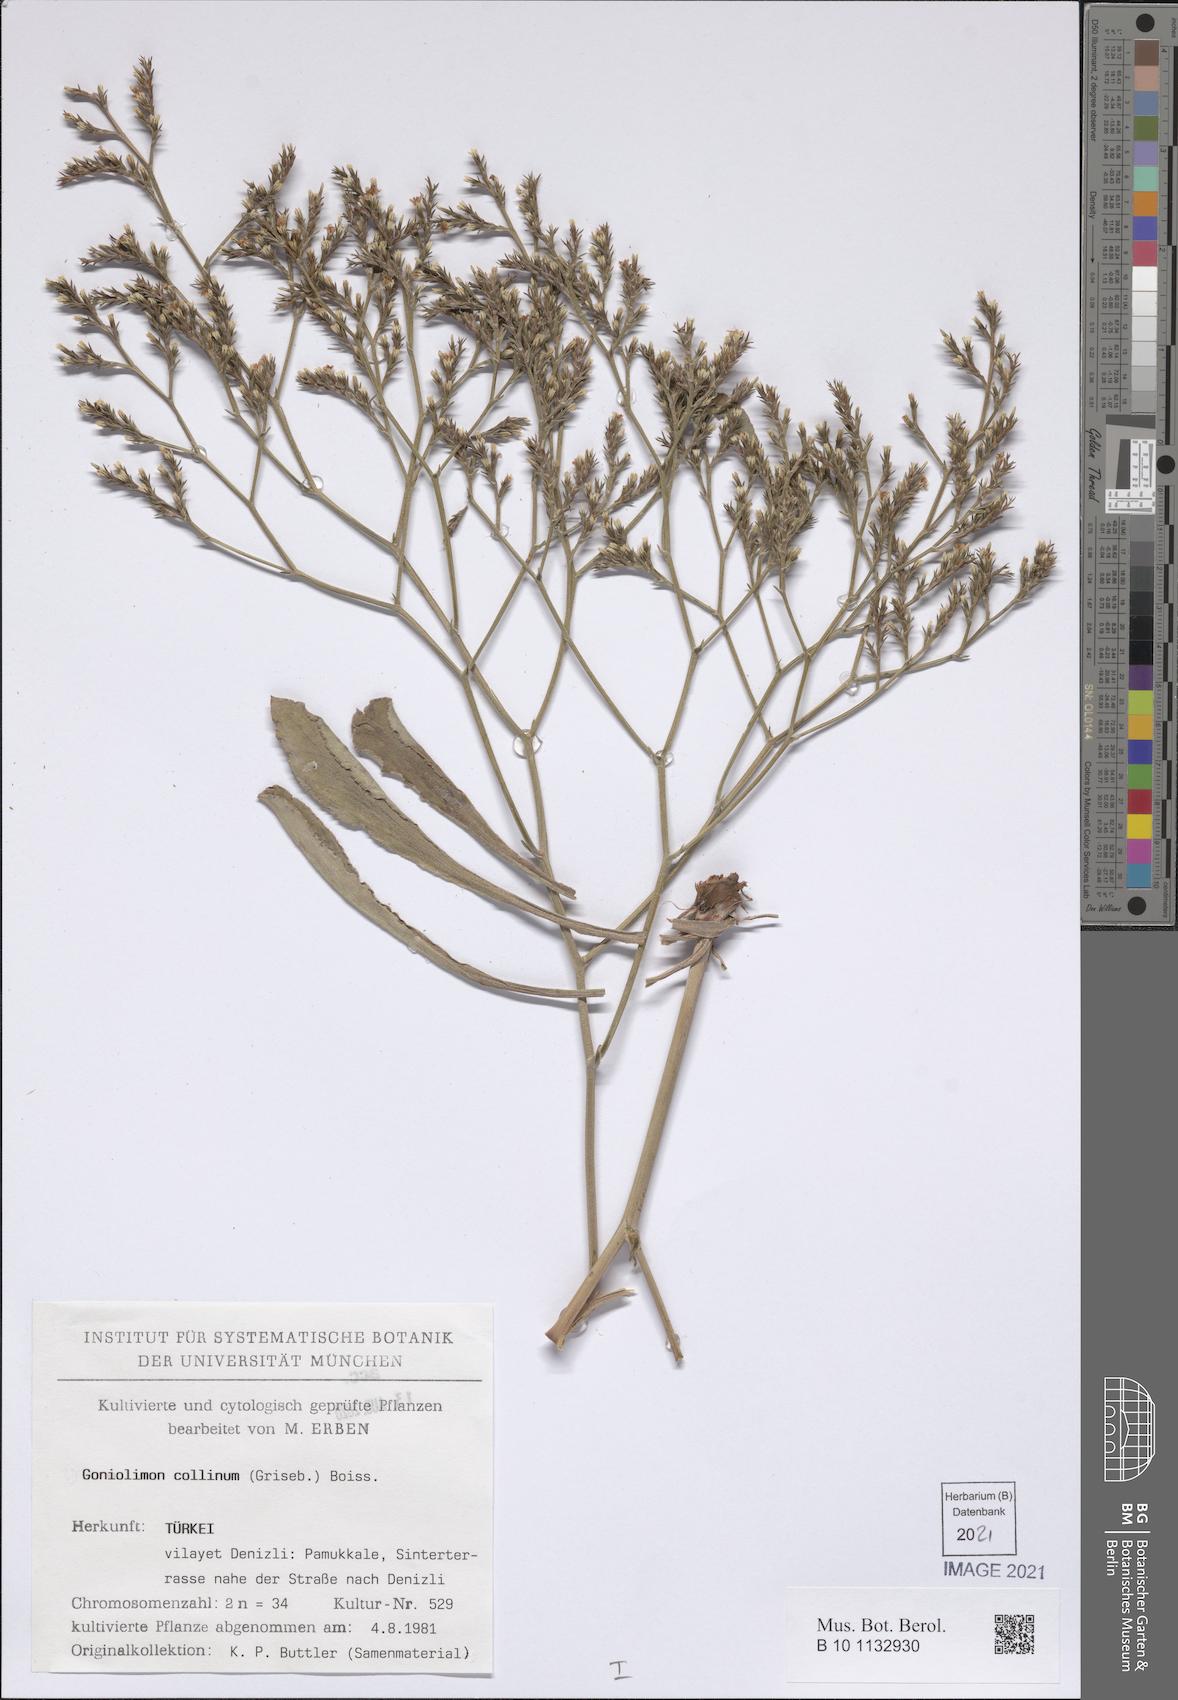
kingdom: Plantae
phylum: Tracheophyta
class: Magnoliopsida
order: Caryophyllales
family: Plumbaginaceae
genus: Goniolimon
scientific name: Goniolimon incanum
